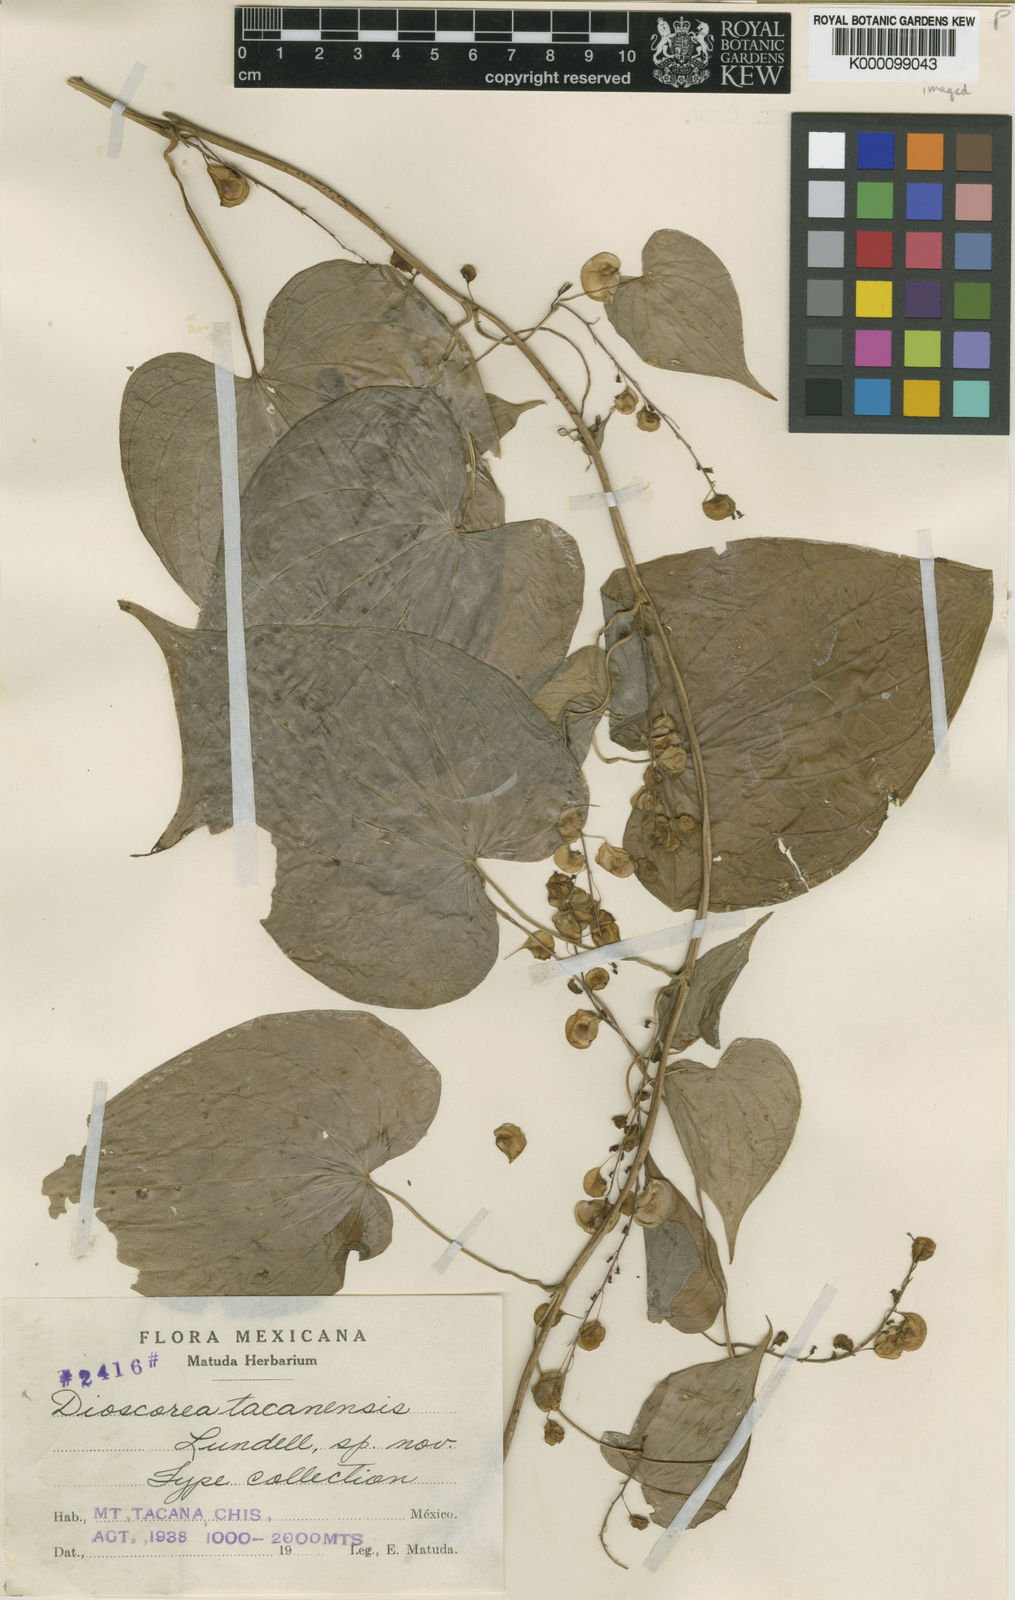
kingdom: Plantae
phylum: Tracheophyta
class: Liliopsida
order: Dioscoreales
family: Dioscoreaceae
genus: Dioscorea
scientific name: Dioscorea tacanensis
